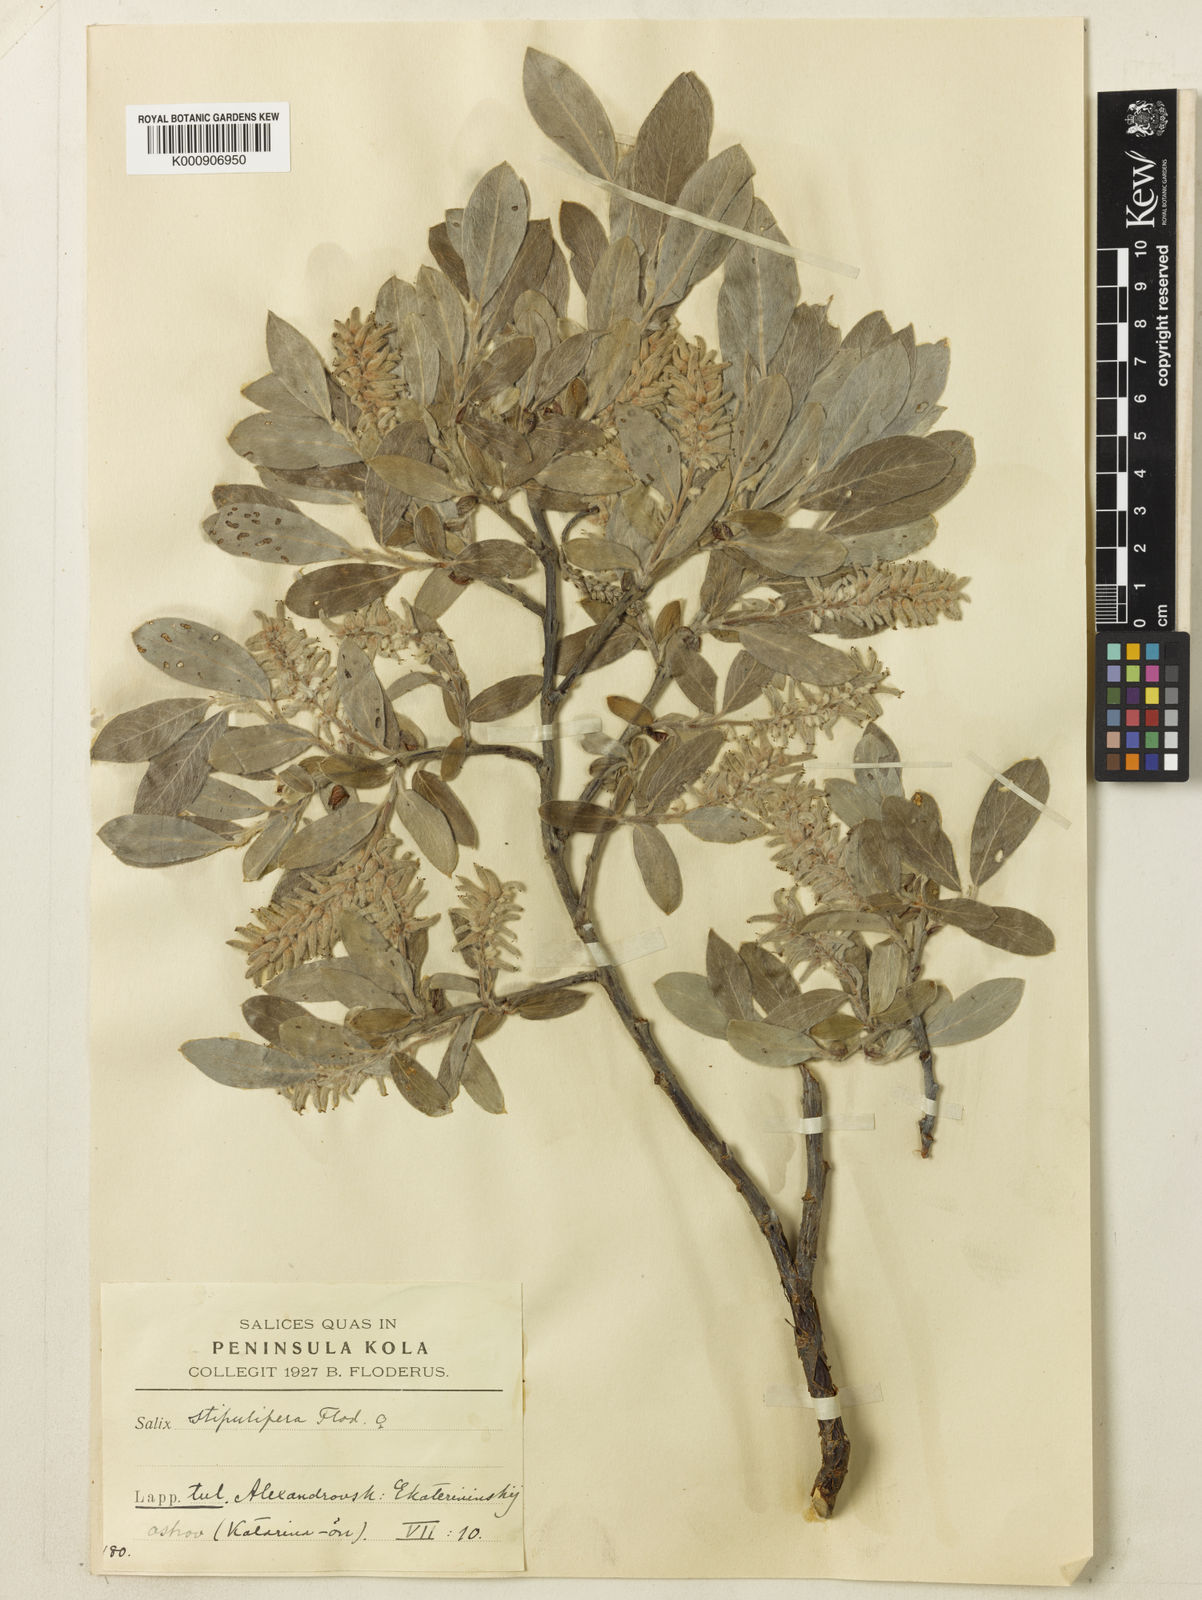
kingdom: Plantae
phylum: Tracheophyta
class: Magnoliopsida
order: Malpighiales
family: Salicaceae
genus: Salix
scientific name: Salix glauca
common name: Glaucous willow
